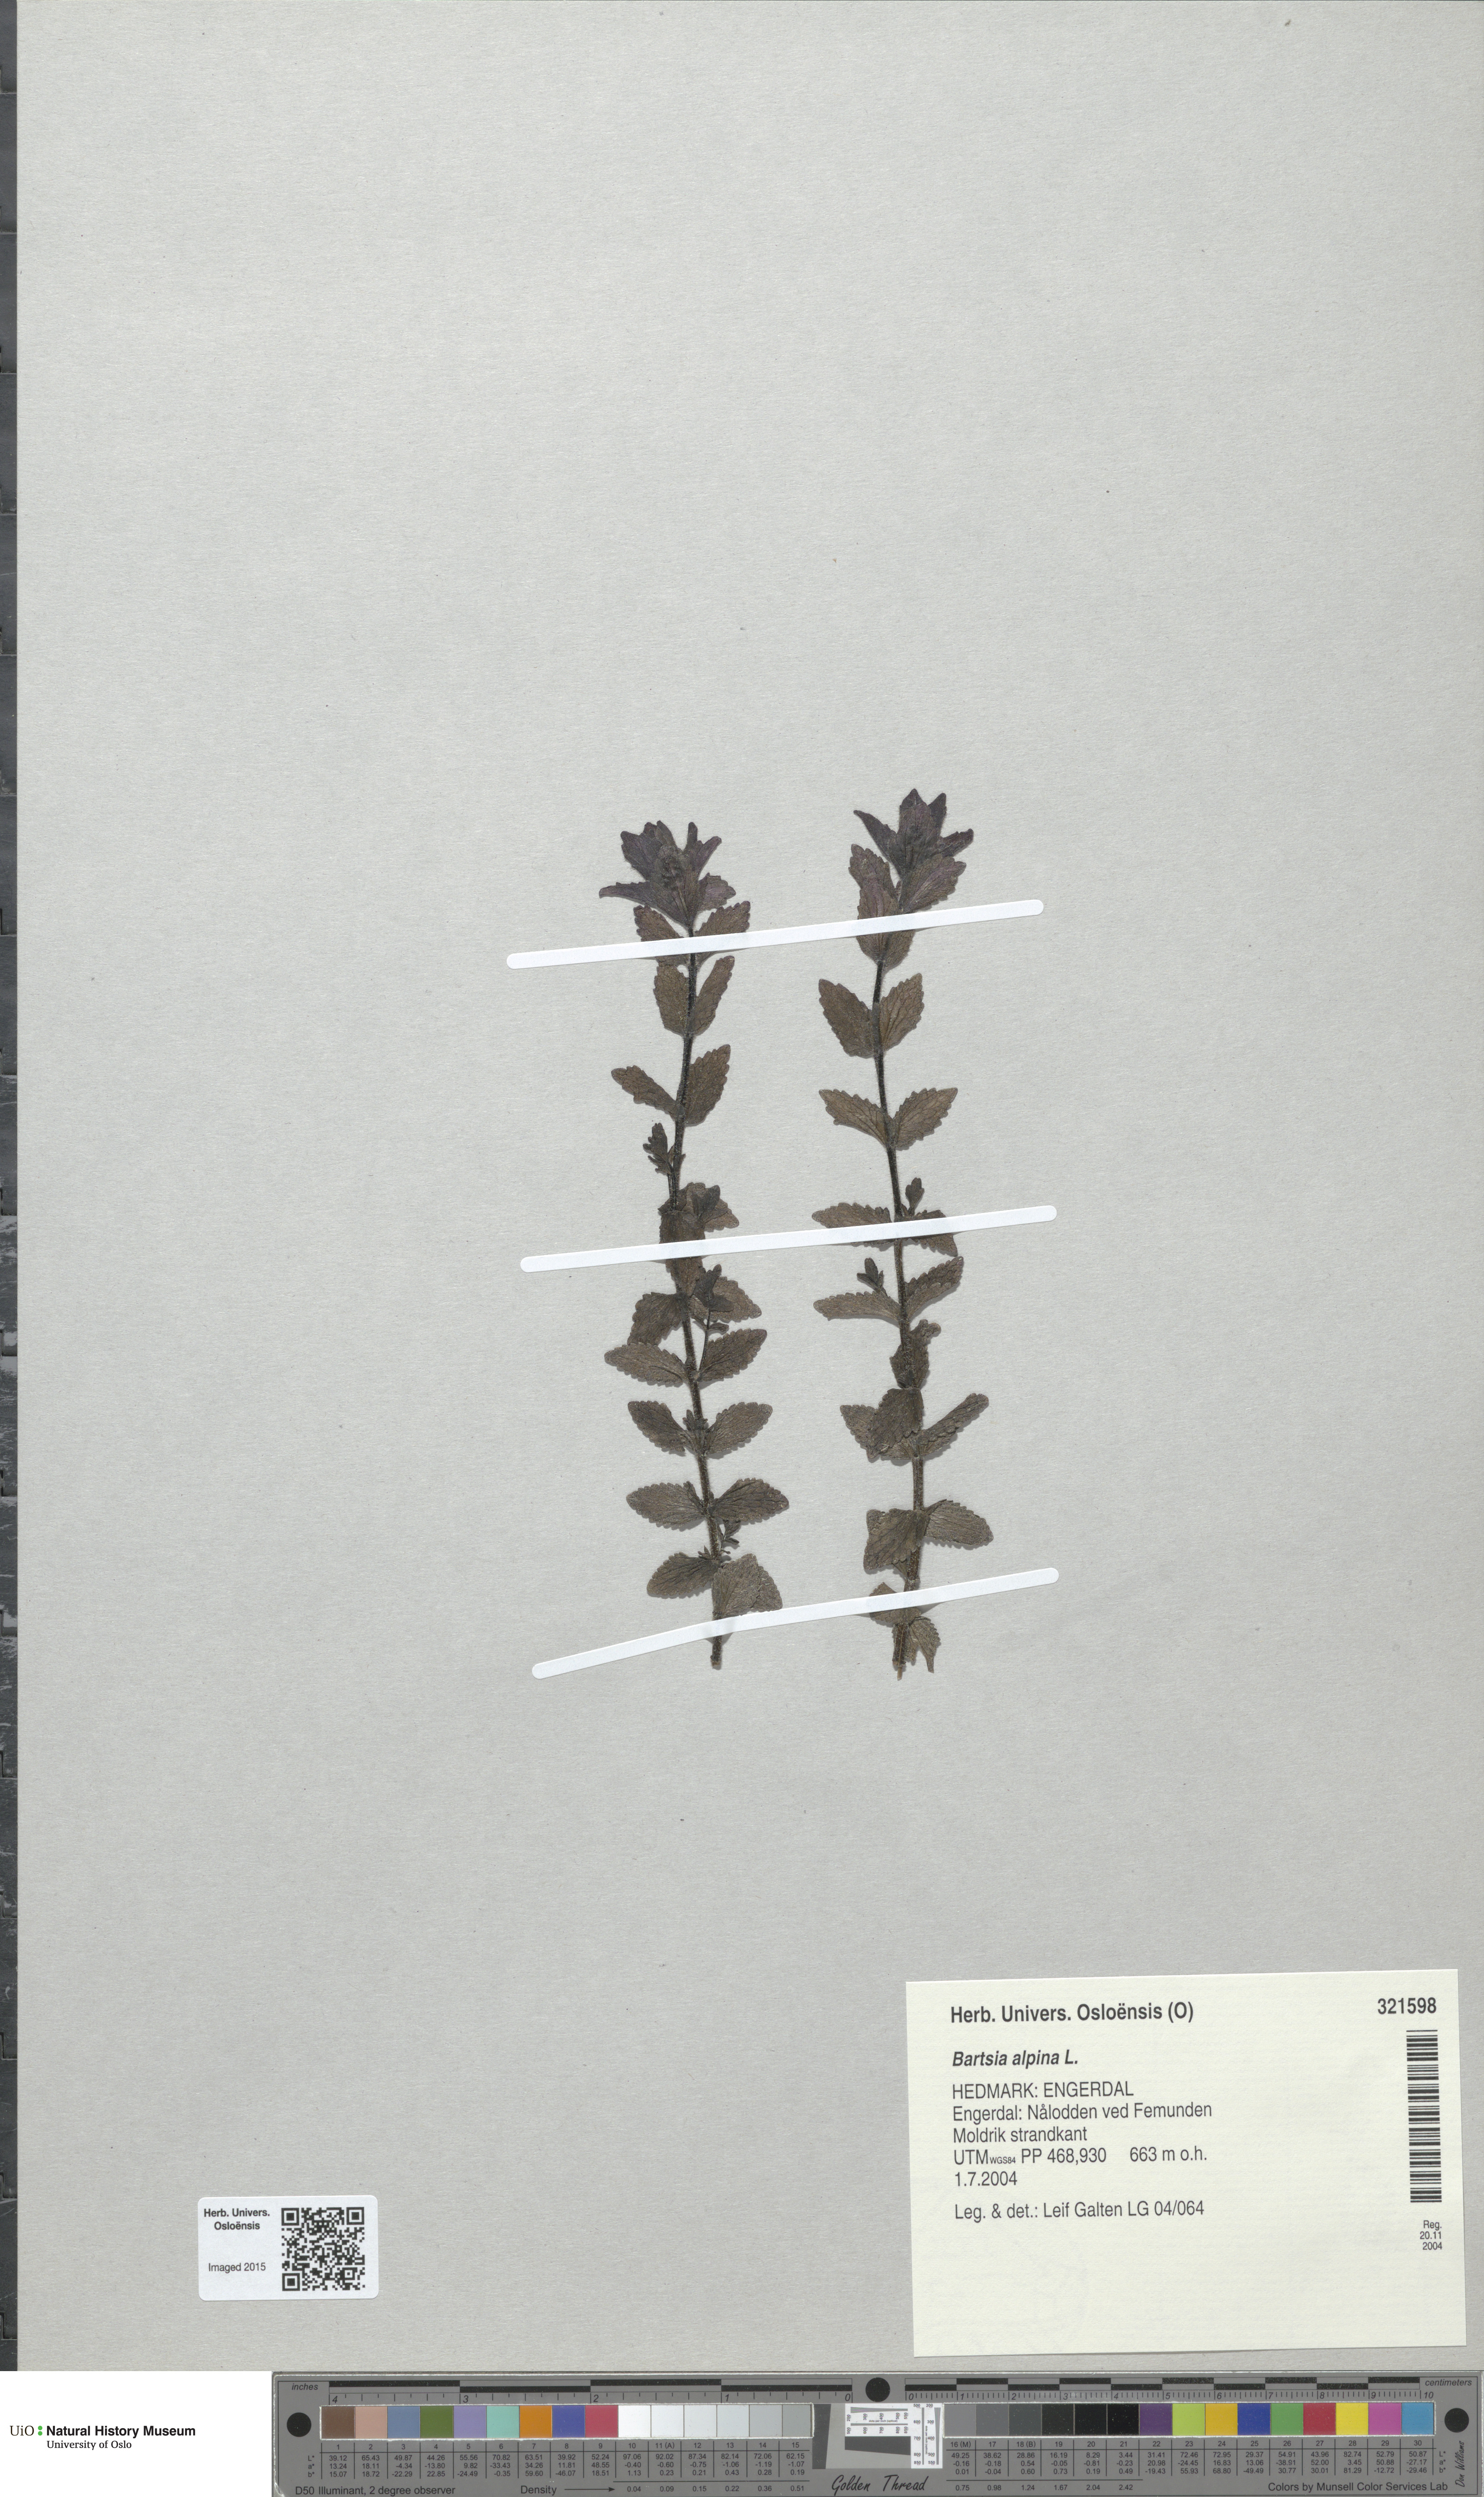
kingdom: Plantae
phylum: Tracheophyta
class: Magnoliopsida
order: Lamiales
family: Orobanchaceae
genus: Bartsia
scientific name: Bartsia alpina
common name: Alpine bartsia
